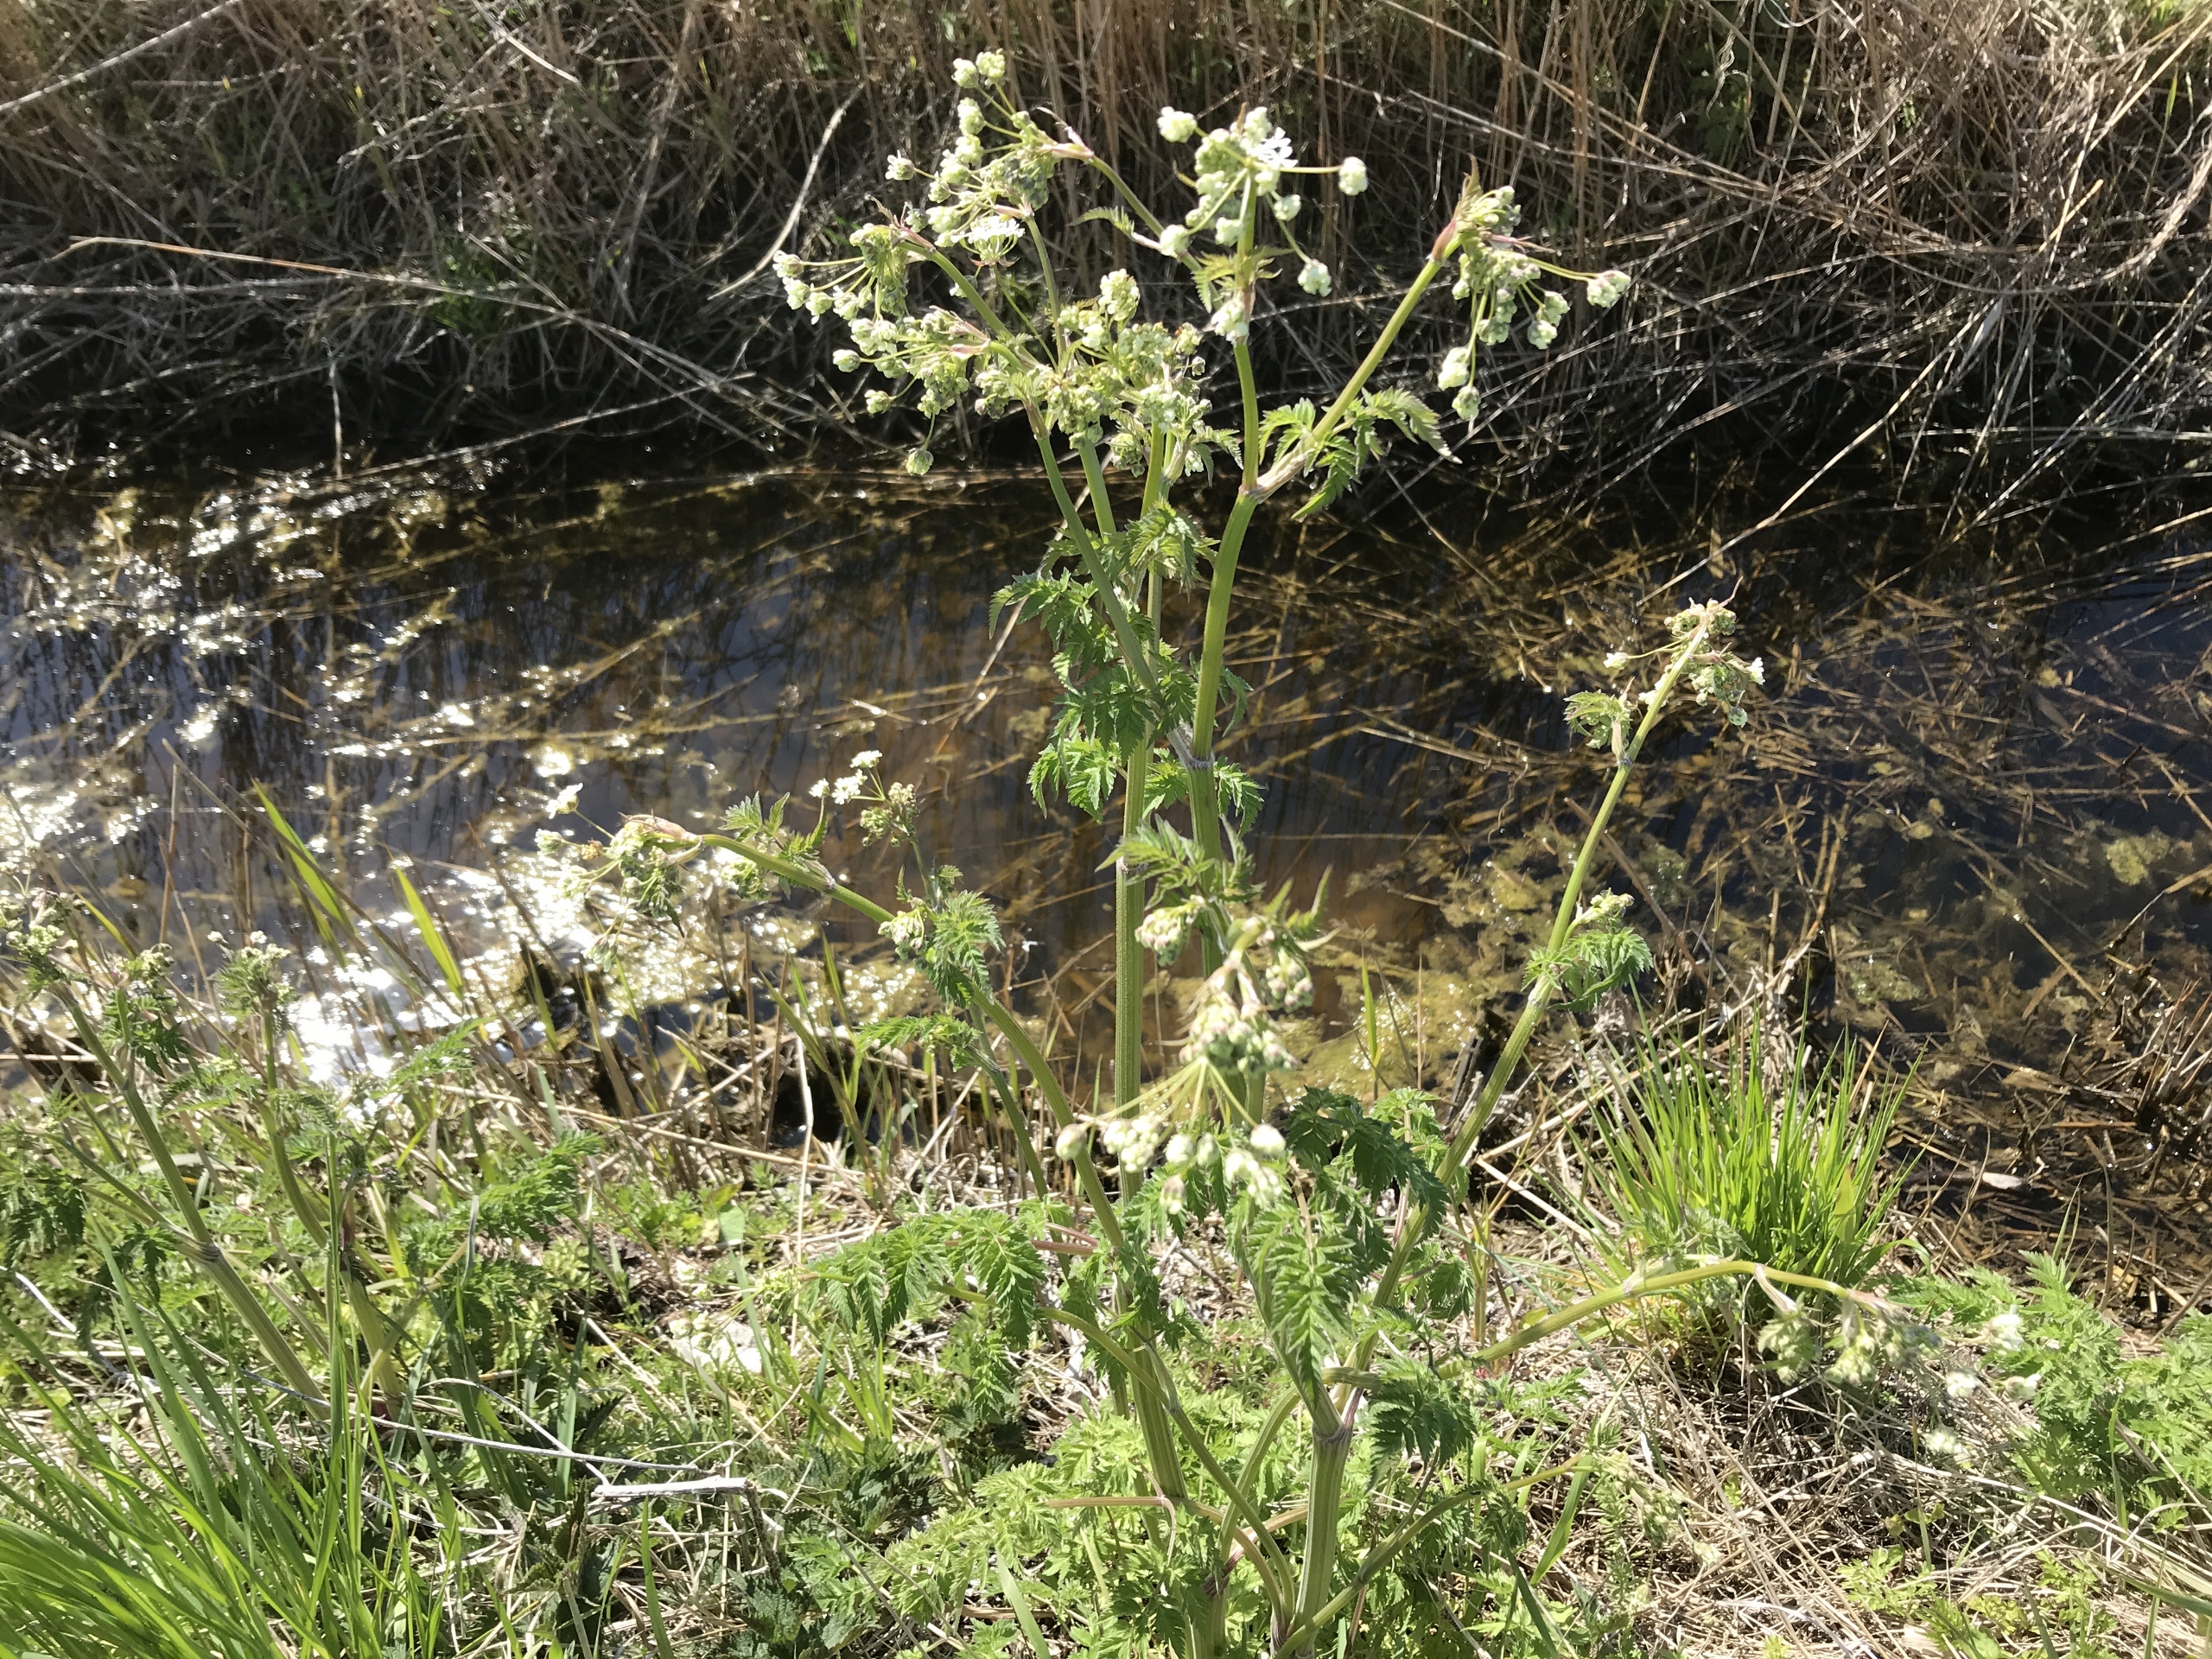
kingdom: Plantae
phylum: Tracheophyta
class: Magnoliopsida
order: Apiales
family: Apiaceae
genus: Anthriscus
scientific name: Anthriscus sylvestris
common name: Vild kørvel
